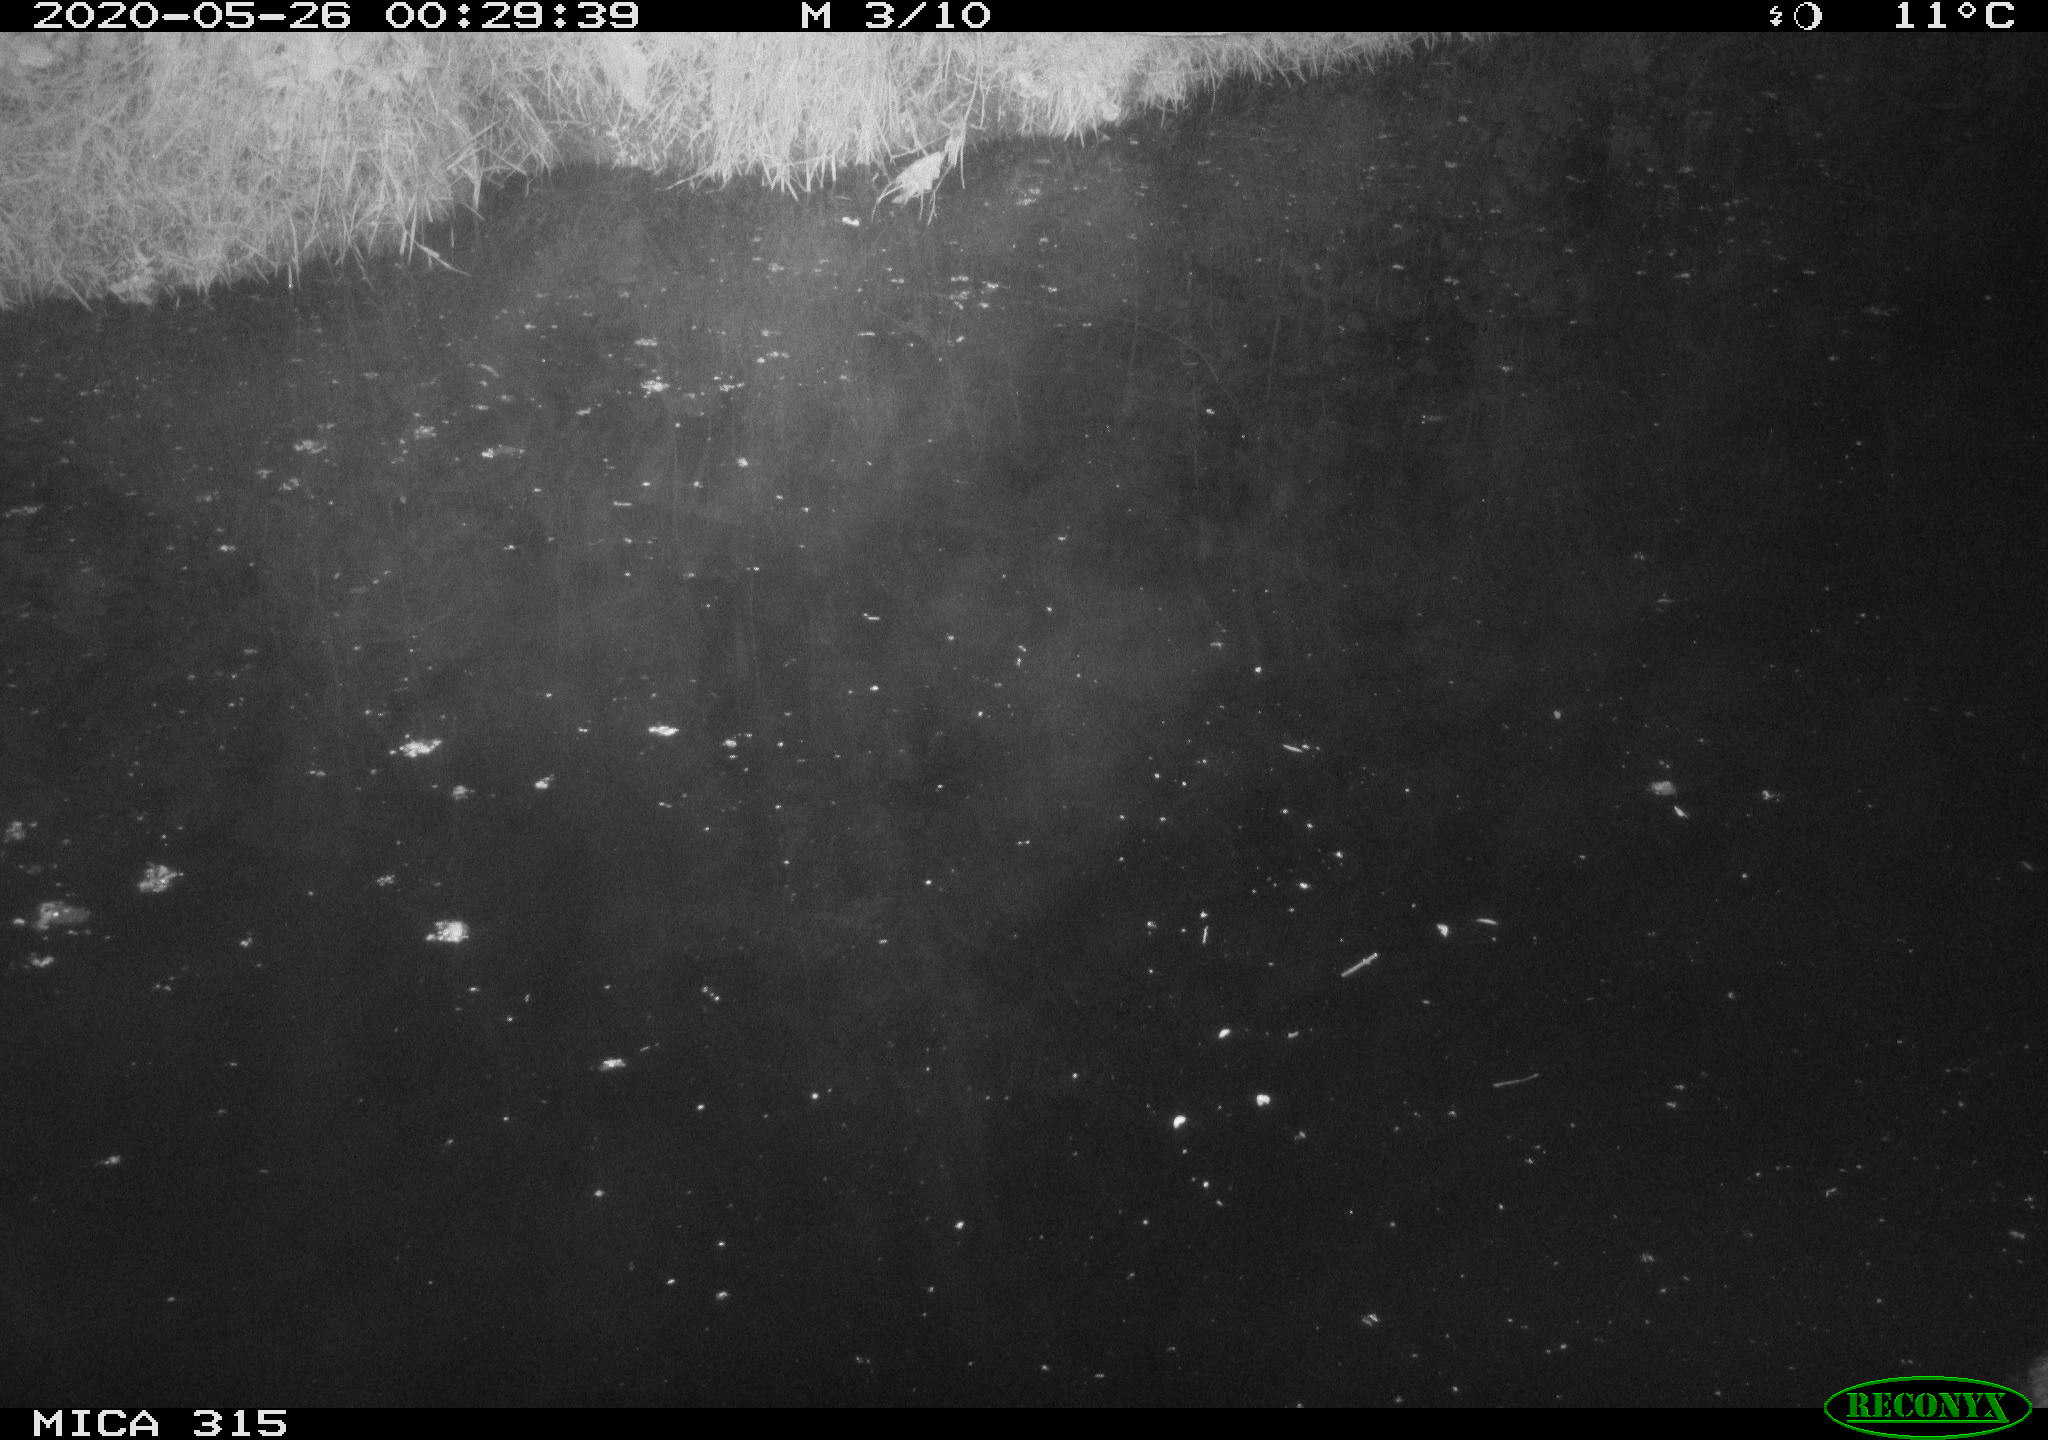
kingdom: Animalia
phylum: Chordata
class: Aves
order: Anseriformes
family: Anatidae
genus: Anas
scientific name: Anas platyrhynchos
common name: Mallard
